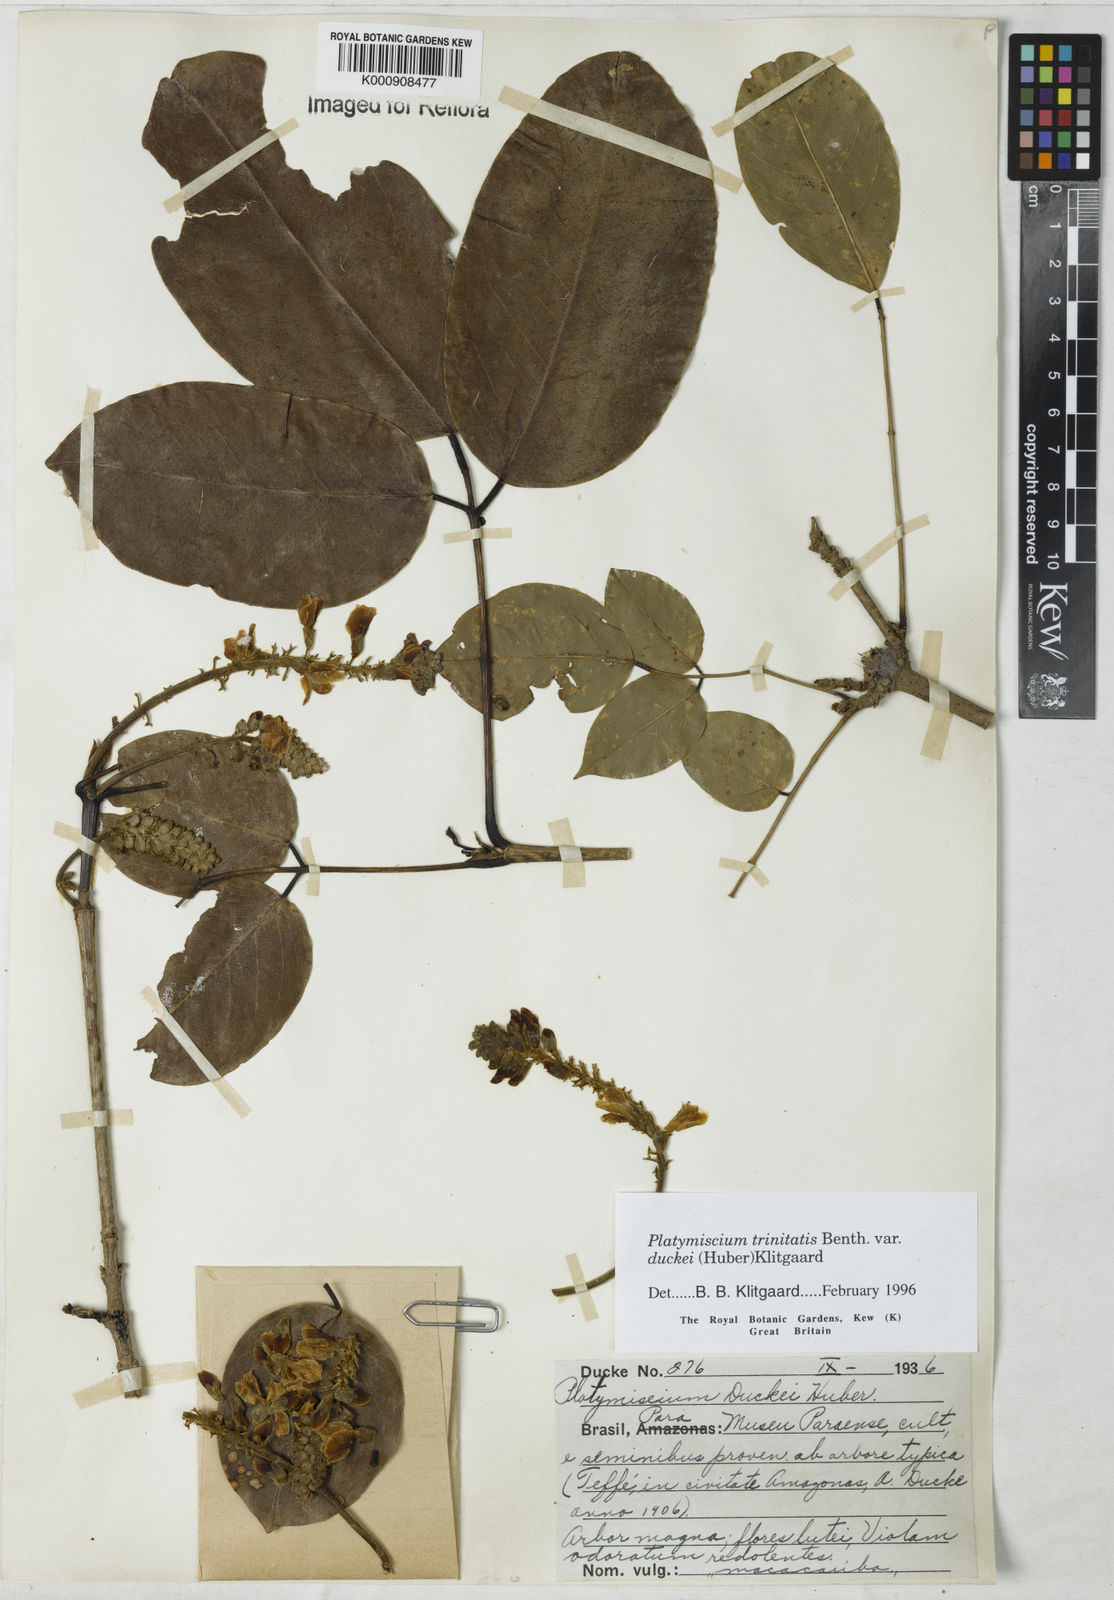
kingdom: Plantae
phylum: Tracheophyta
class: Magnoliopsida
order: Fabales
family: Fabaceae
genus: Platymiscium
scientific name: Platymiscium trinitatis
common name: Trinidad macawood
